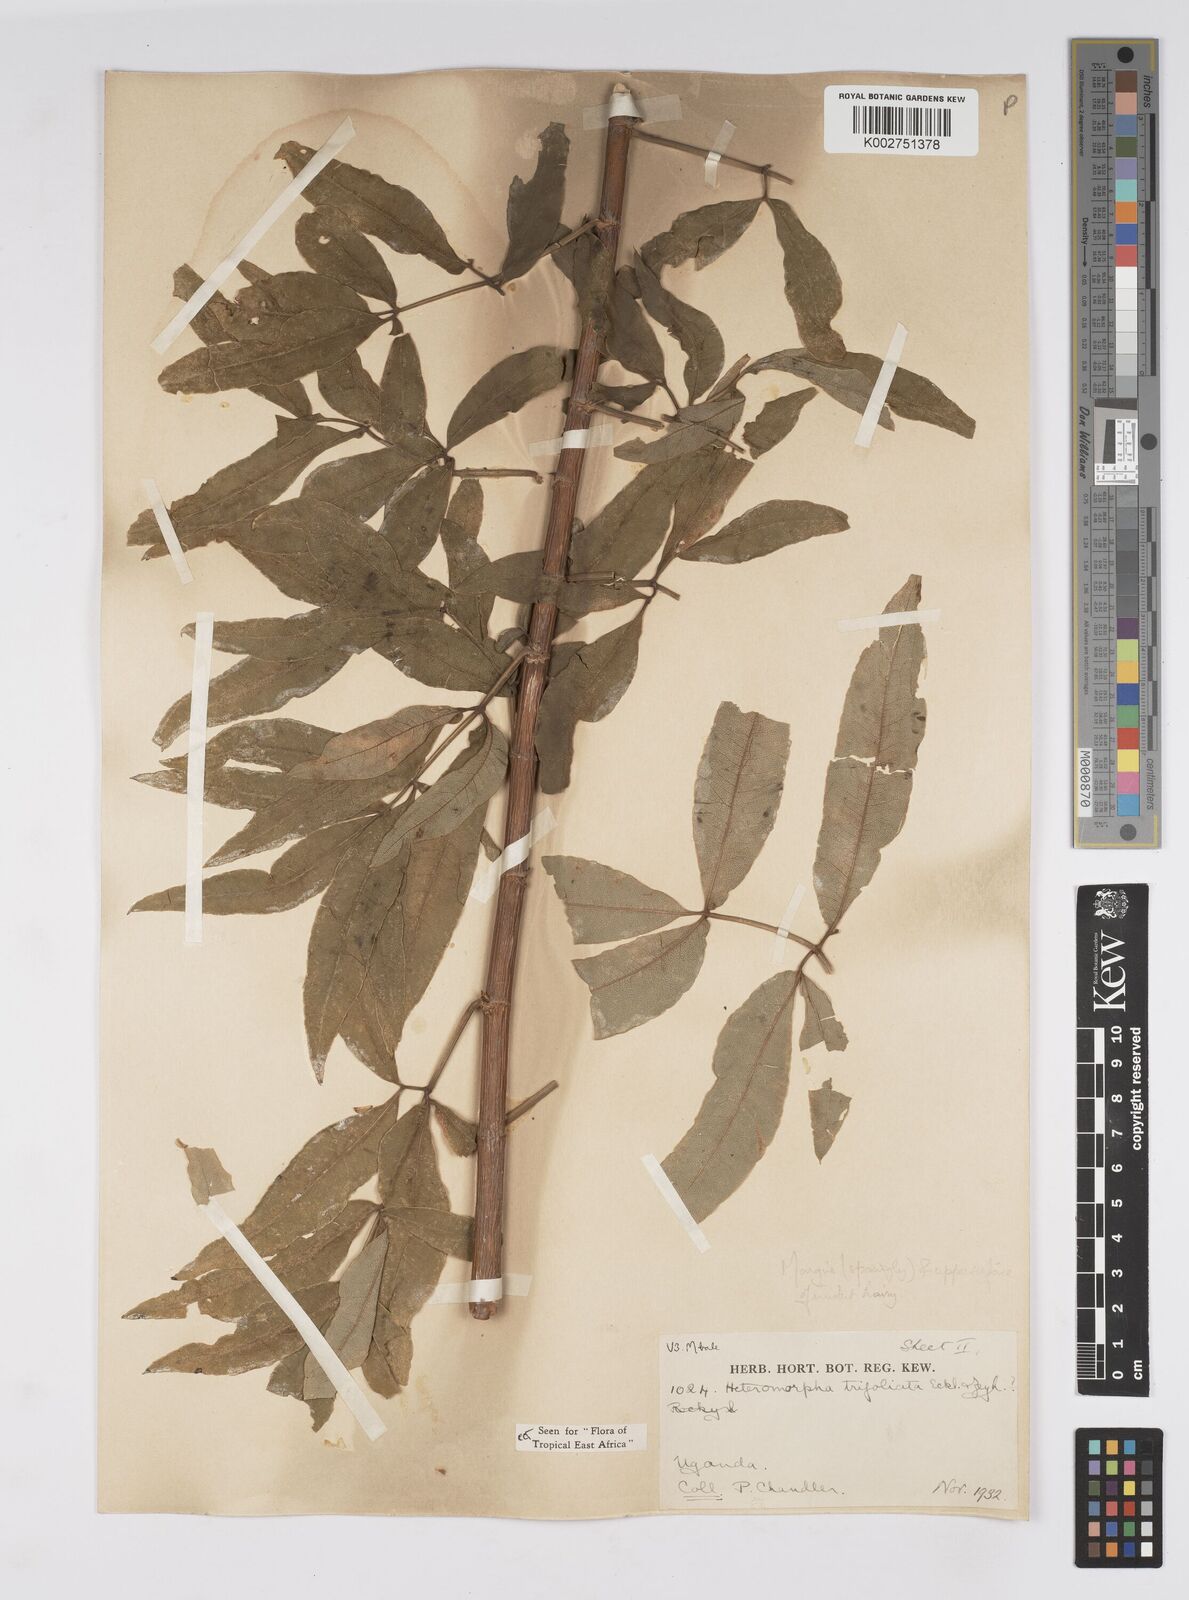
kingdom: Plantae
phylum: Tracheophyta
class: Magnoliopsida
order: Apiales
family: Apiaceae
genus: Heteromorpha
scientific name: Heteromorpha arborescens
